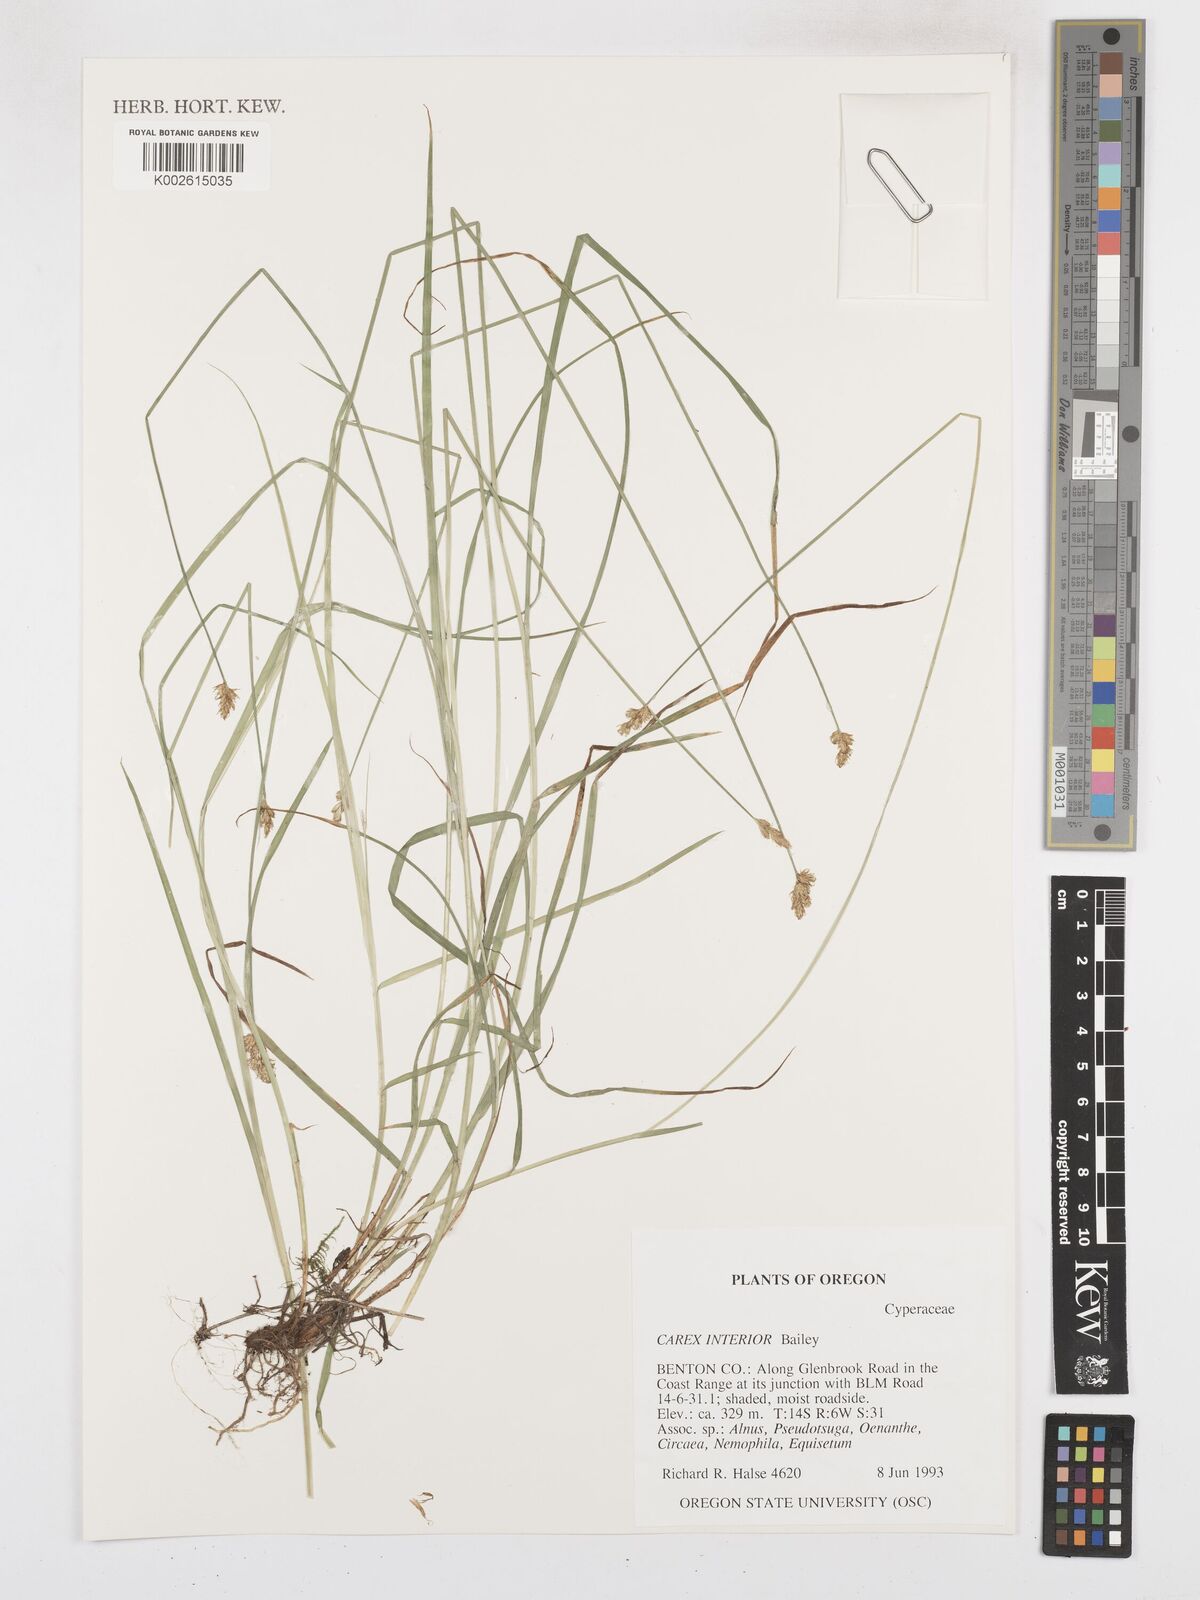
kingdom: Plantae
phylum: Tracheophyta
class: Liliopsida
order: Poales
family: Cyperaceae
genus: Carex
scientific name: Carex interior
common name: Inland sedge
